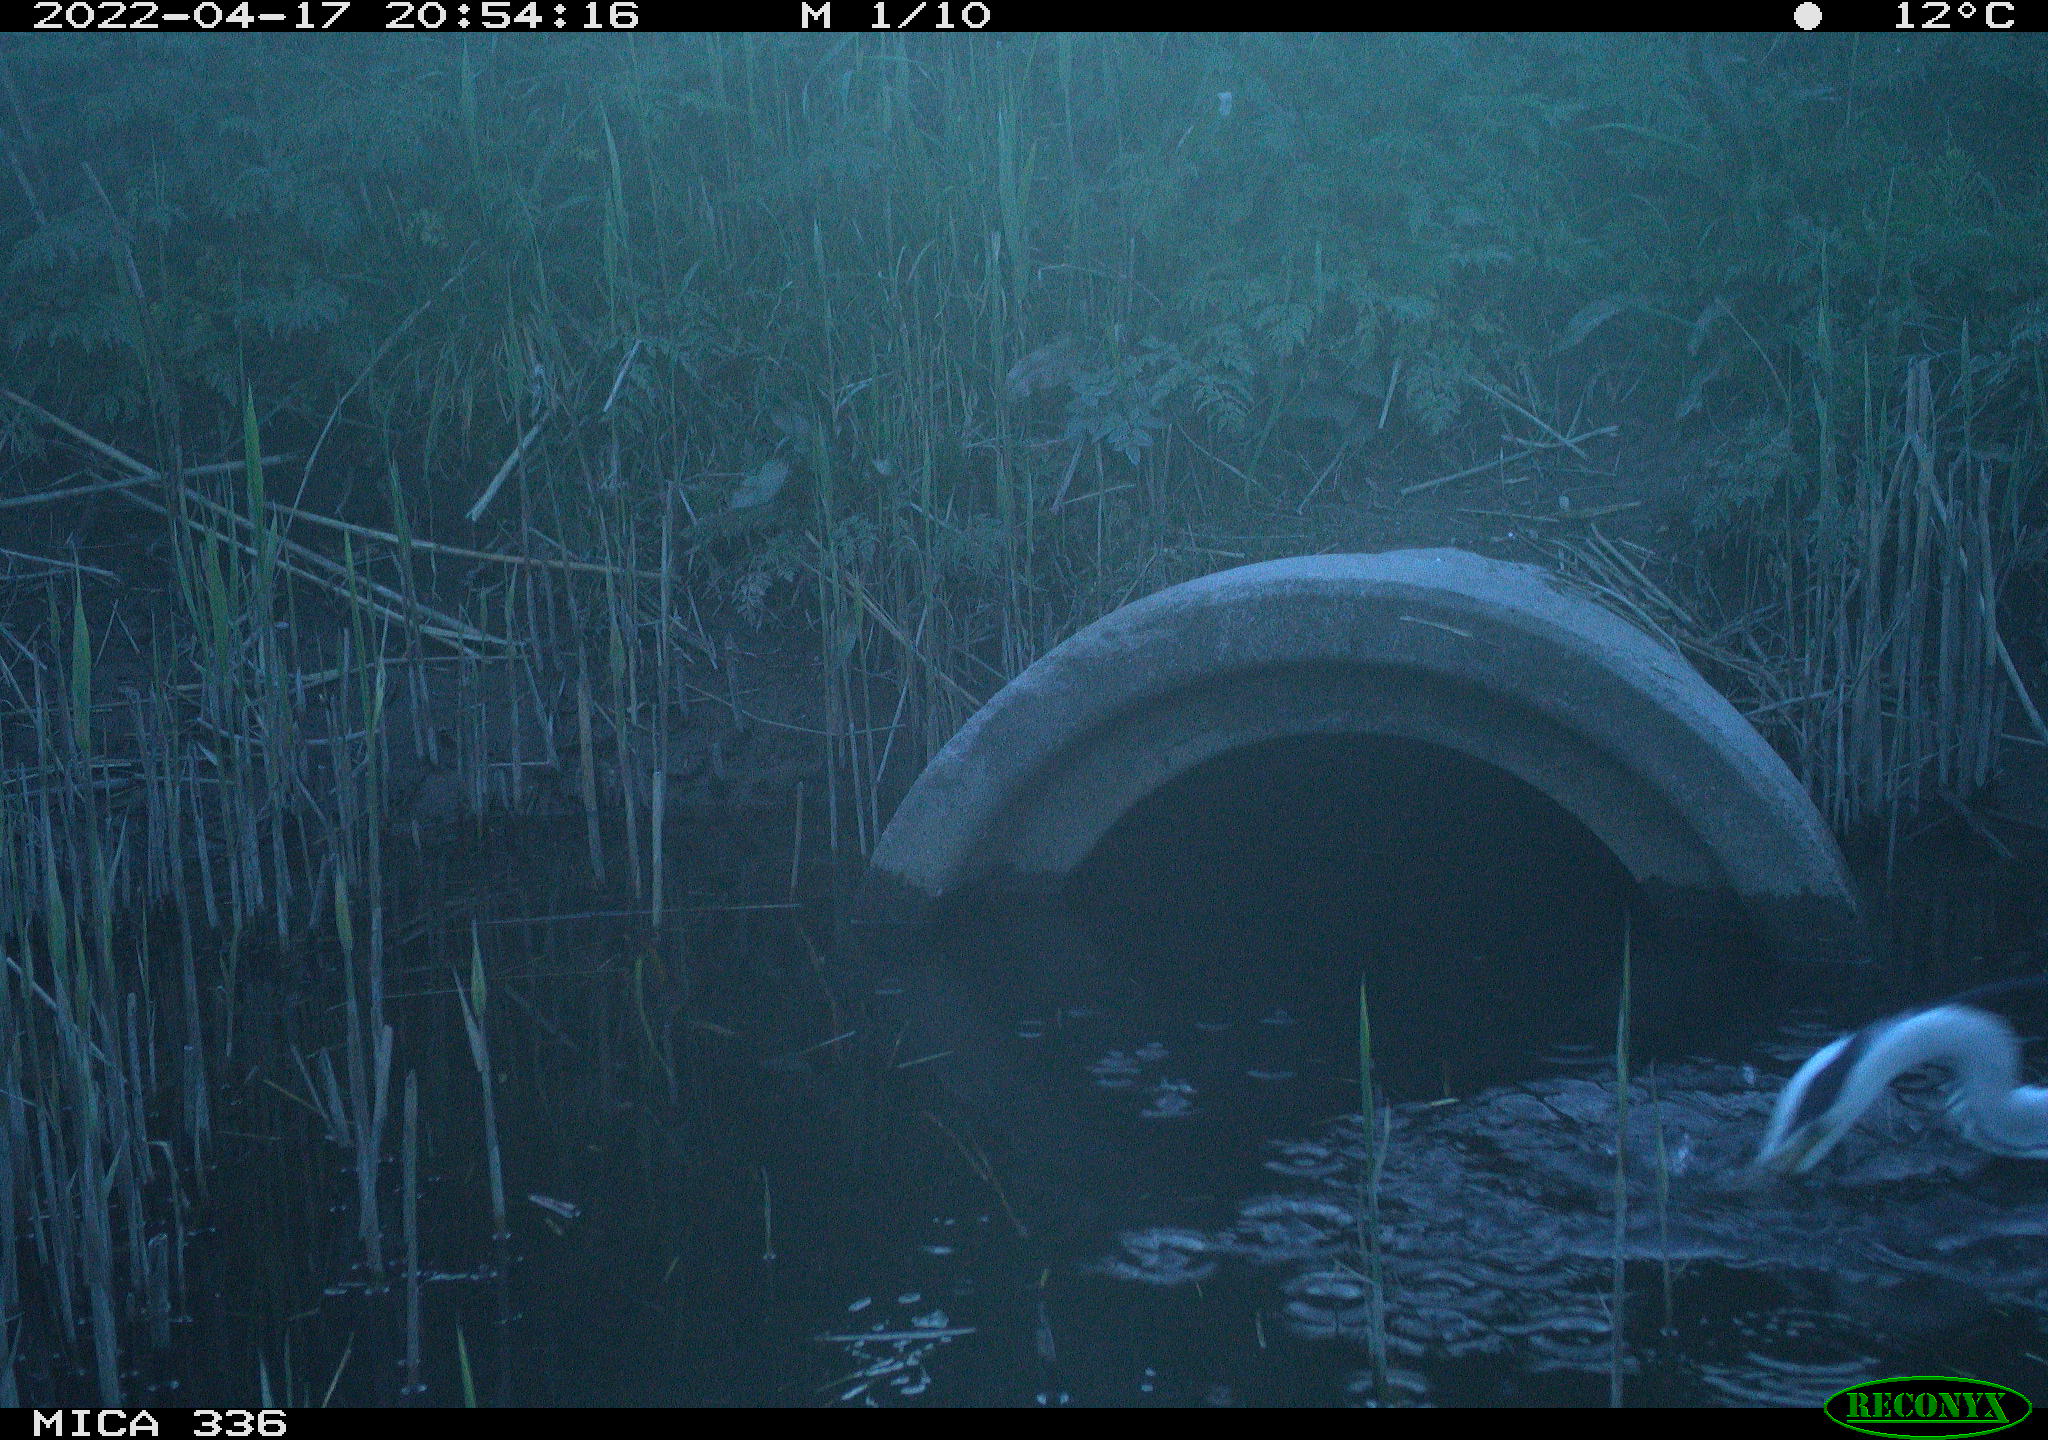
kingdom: Animalia
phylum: Chordata
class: Aves
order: Pelecaniformes
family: Ardeidae
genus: Ardea
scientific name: Ardea cinerea
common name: Grey heron
